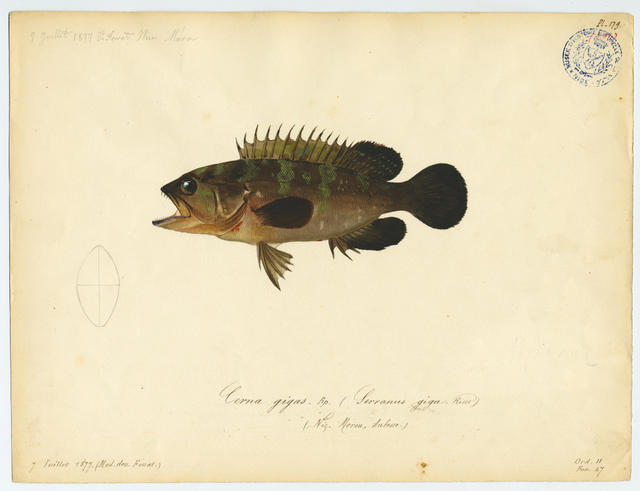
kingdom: Animalia
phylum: Chordata
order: Perciformes
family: Serranidae
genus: Epinephelus
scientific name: Epinephelus marginatus
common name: Dusky grouper
